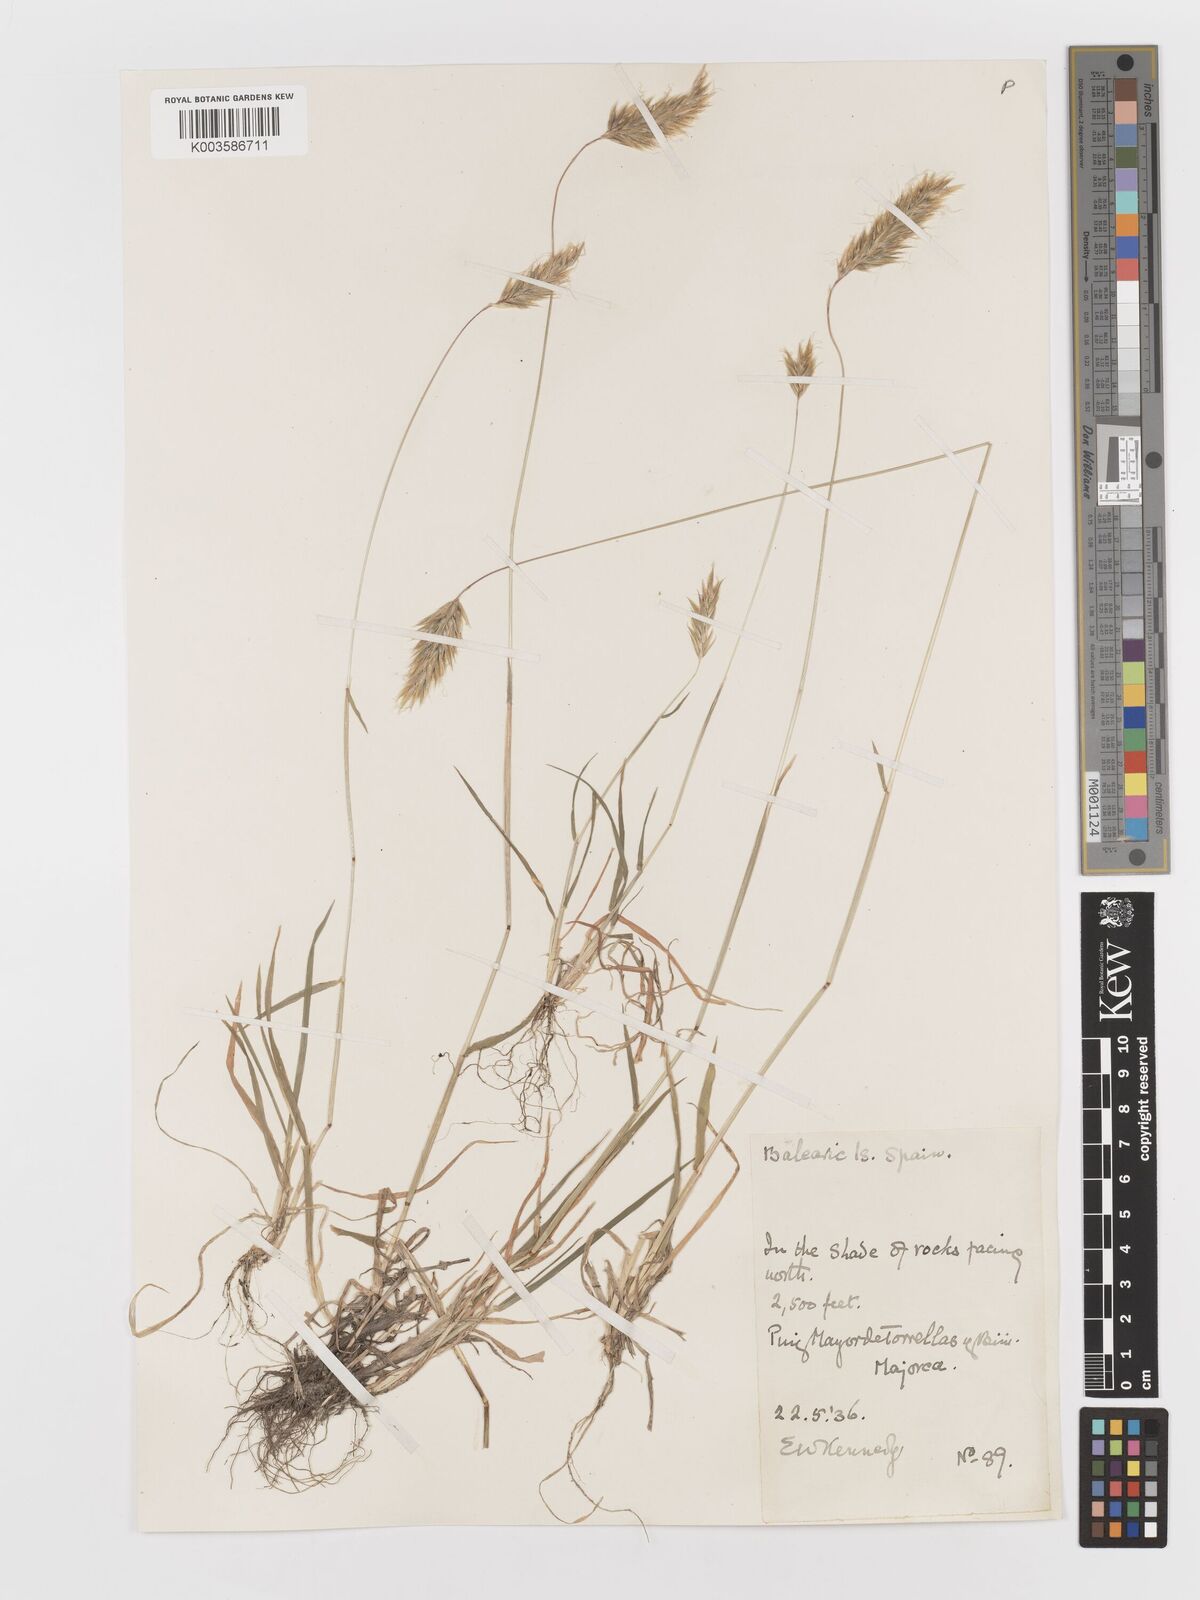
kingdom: Plantae
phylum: Tracheophyta
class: Liliopsida
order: Poales
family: Poaceae
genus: Anthoxanthum
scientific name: Anthoxanthum odoratum
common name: Sweet vernalgrass
